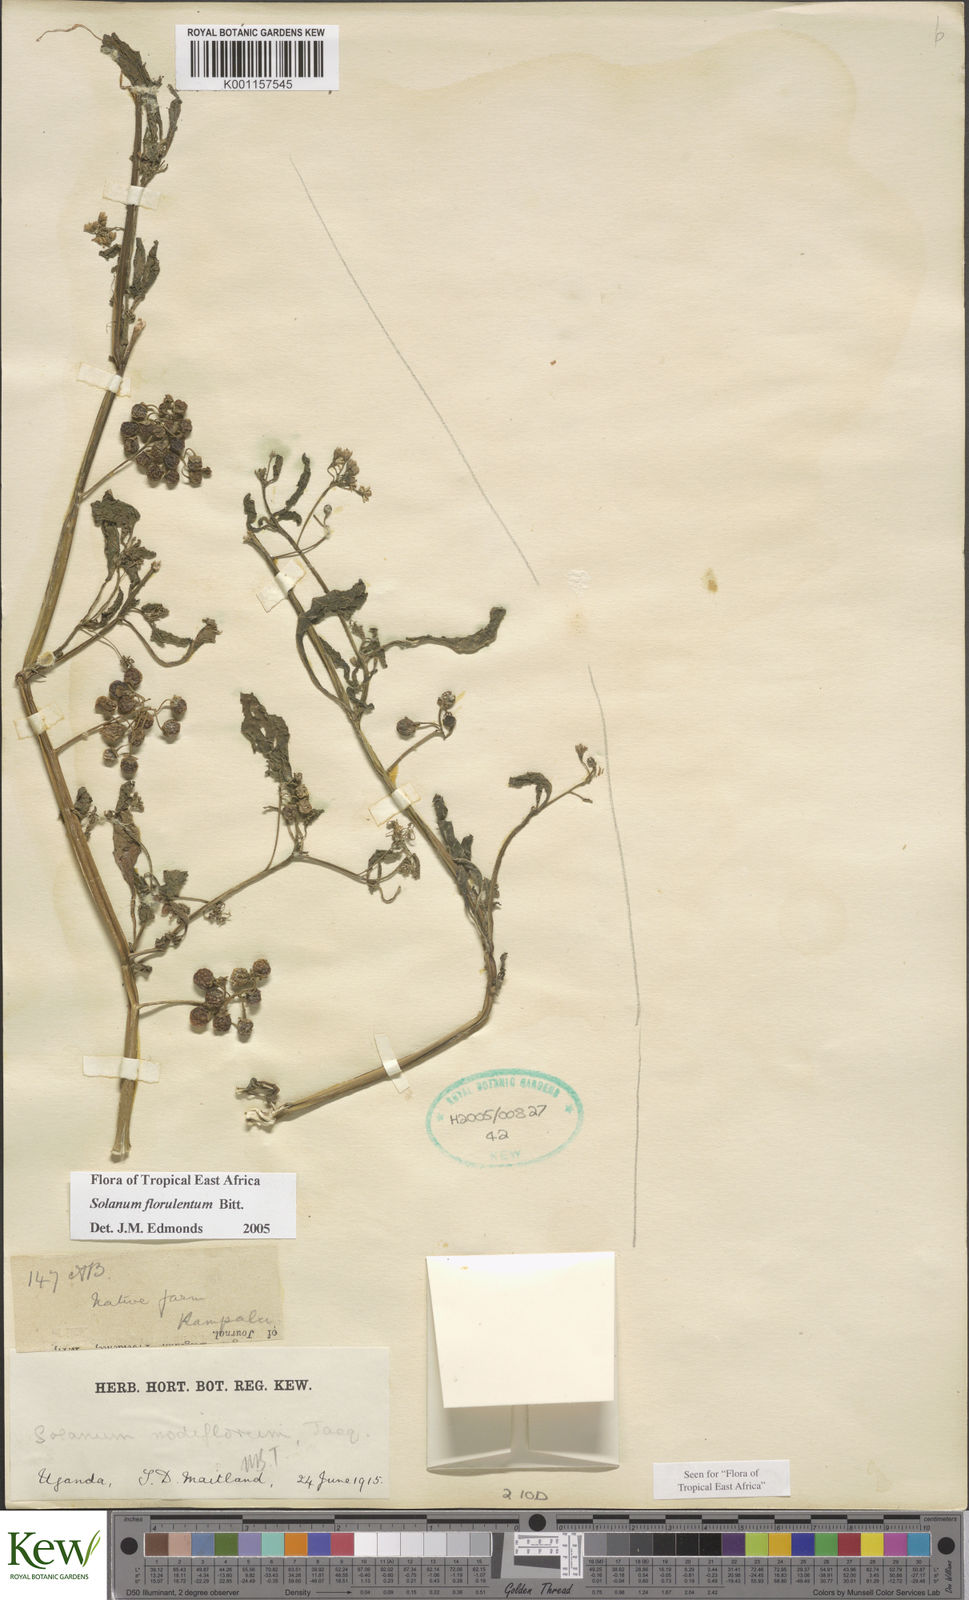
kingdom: Plantae
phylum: Tracheophyta
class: Magnoliopsida
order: Solanales
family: Solanaceae
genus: Solanum
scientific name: Solanum tarderemotum
